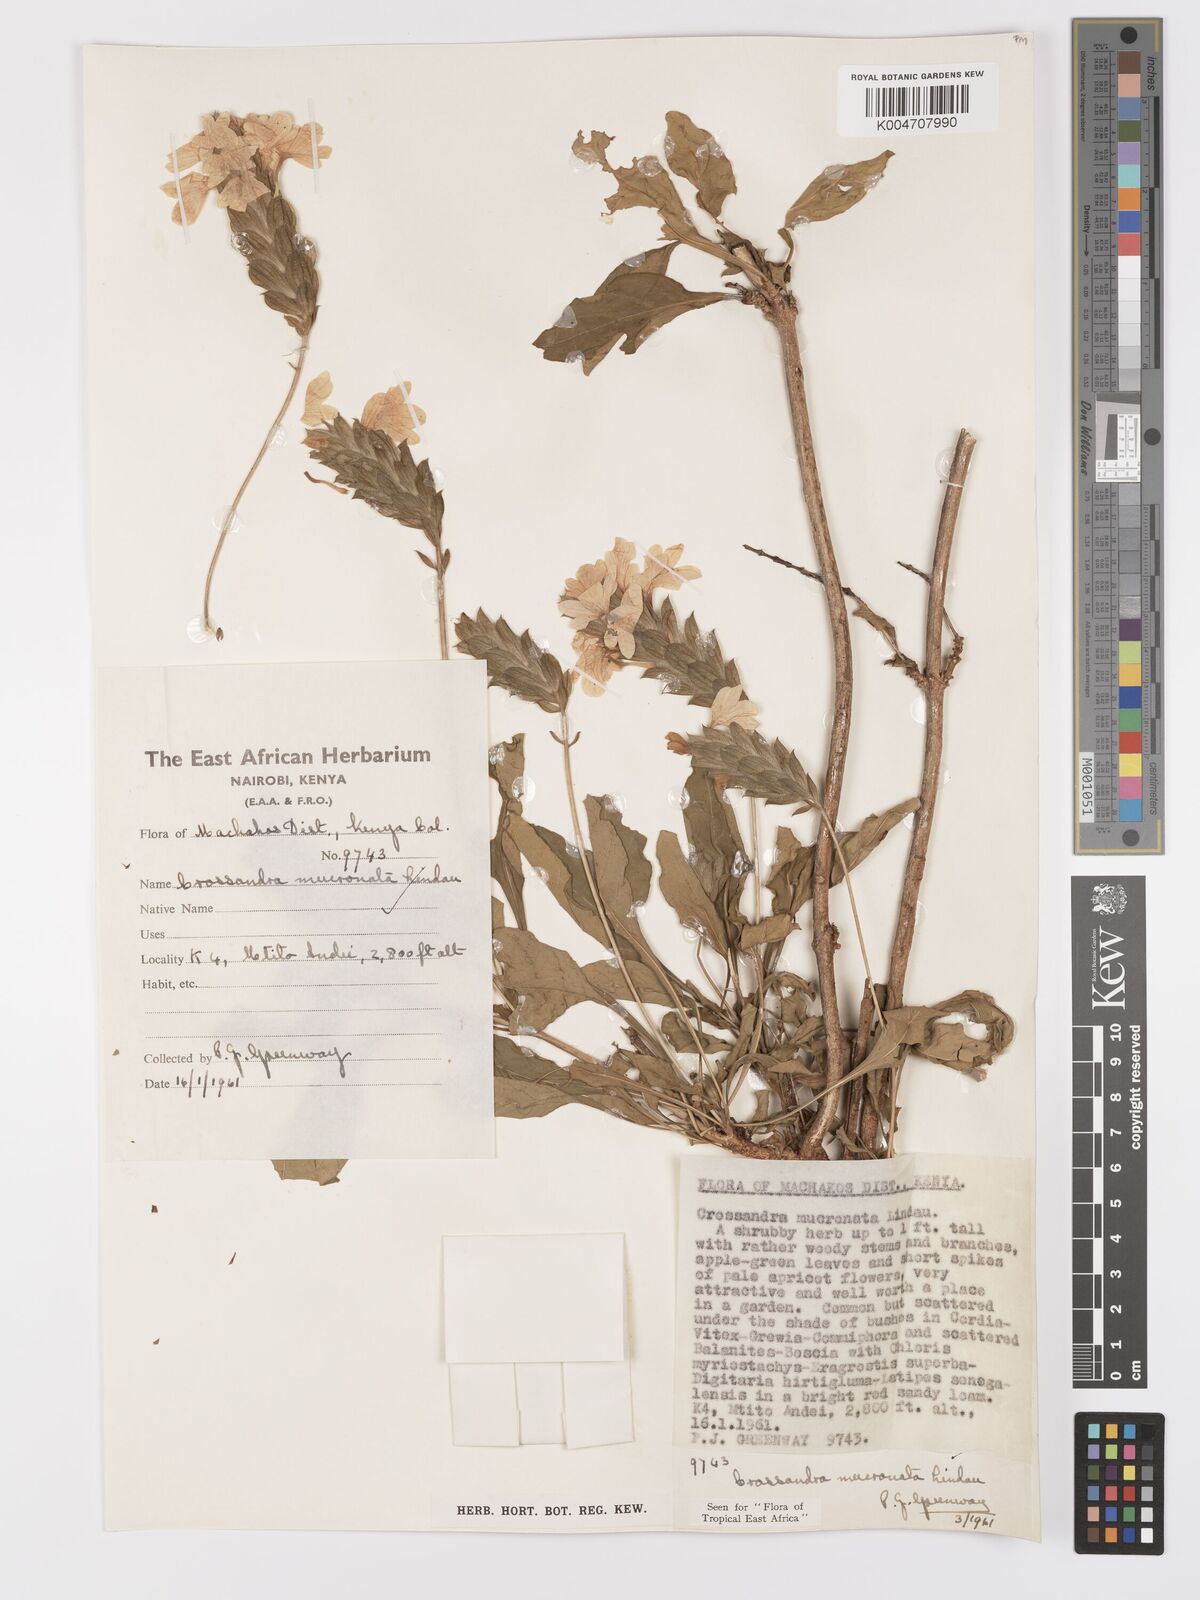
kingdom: Plantae
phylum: Tracheophyta
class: Magnoliopsida
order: Lamiales
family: Acanthaceae
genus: Crossandra
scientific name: Crossandra mucronata
